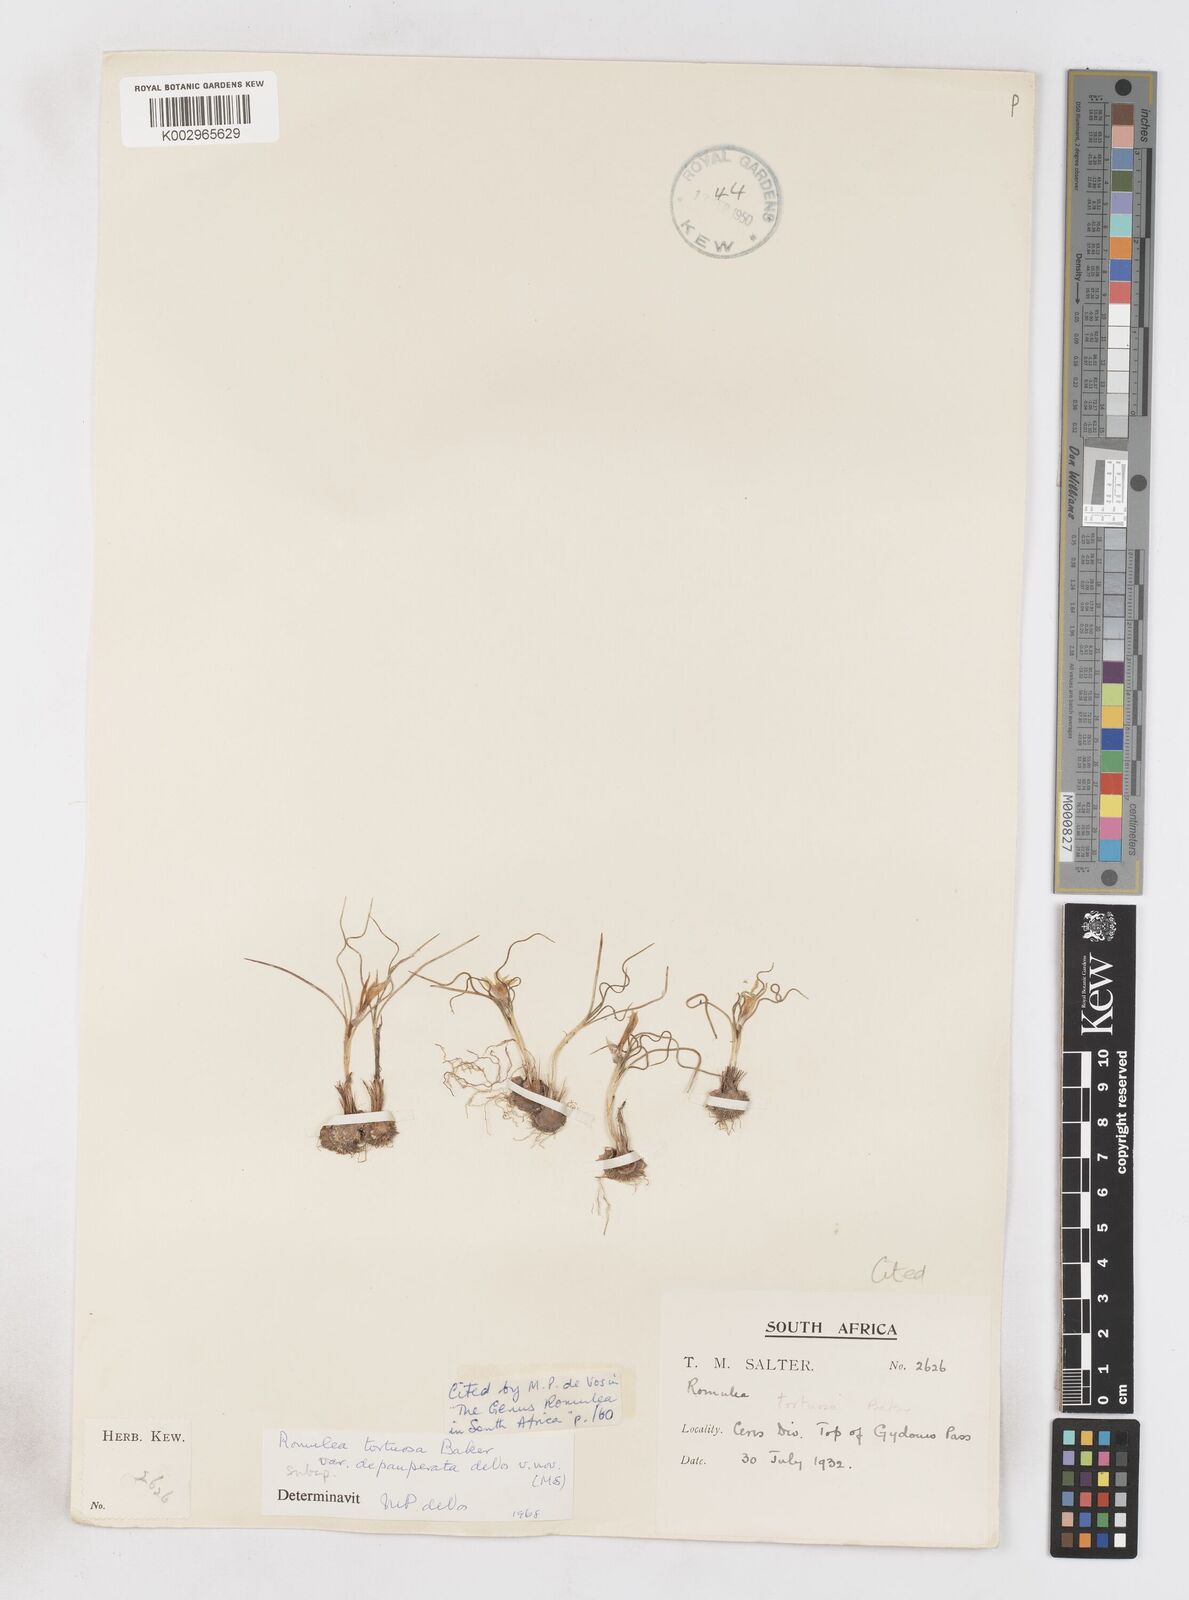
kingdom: Plantae
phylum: Tracheophyta
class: Liliopsida
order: Asparagales
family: Iridaceae
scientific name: Iridaceae
